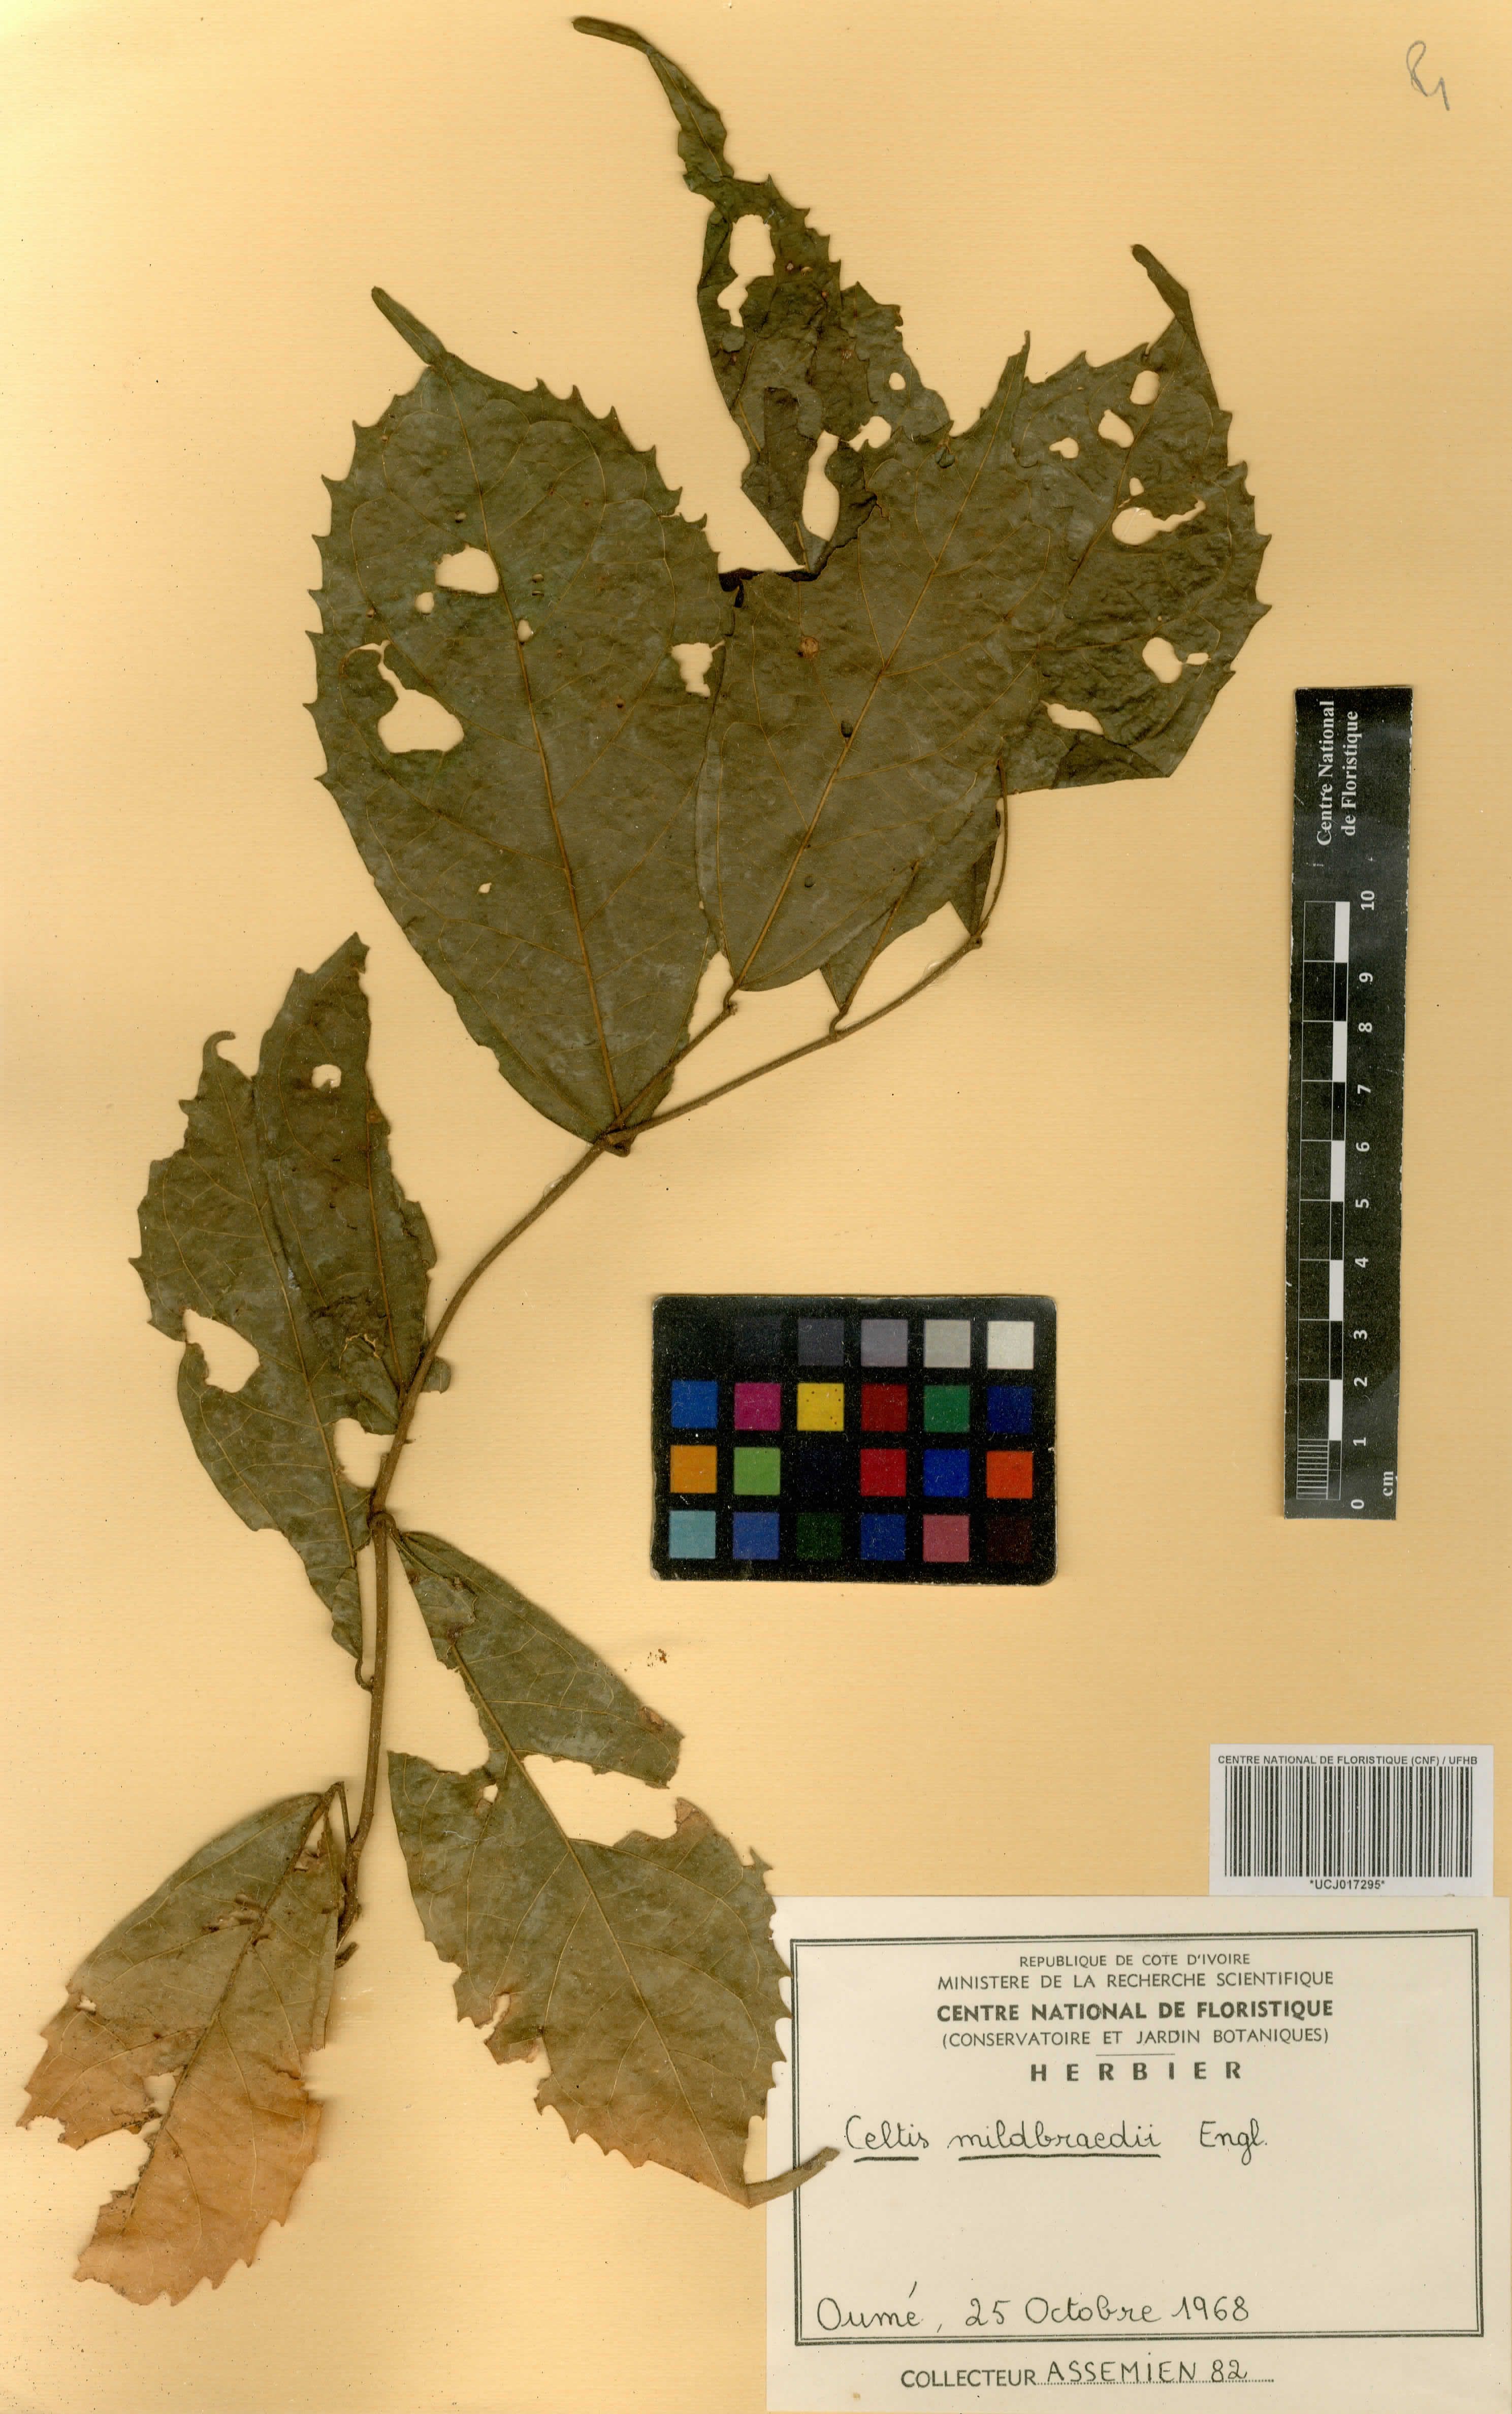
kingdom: Plantae
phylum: Tracheophyta
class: Magnoliopsida
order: Rosales
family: Cannabaceae
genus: Celtis
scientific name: Celtis mildbraedii
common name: Red-fruited stinkwood
